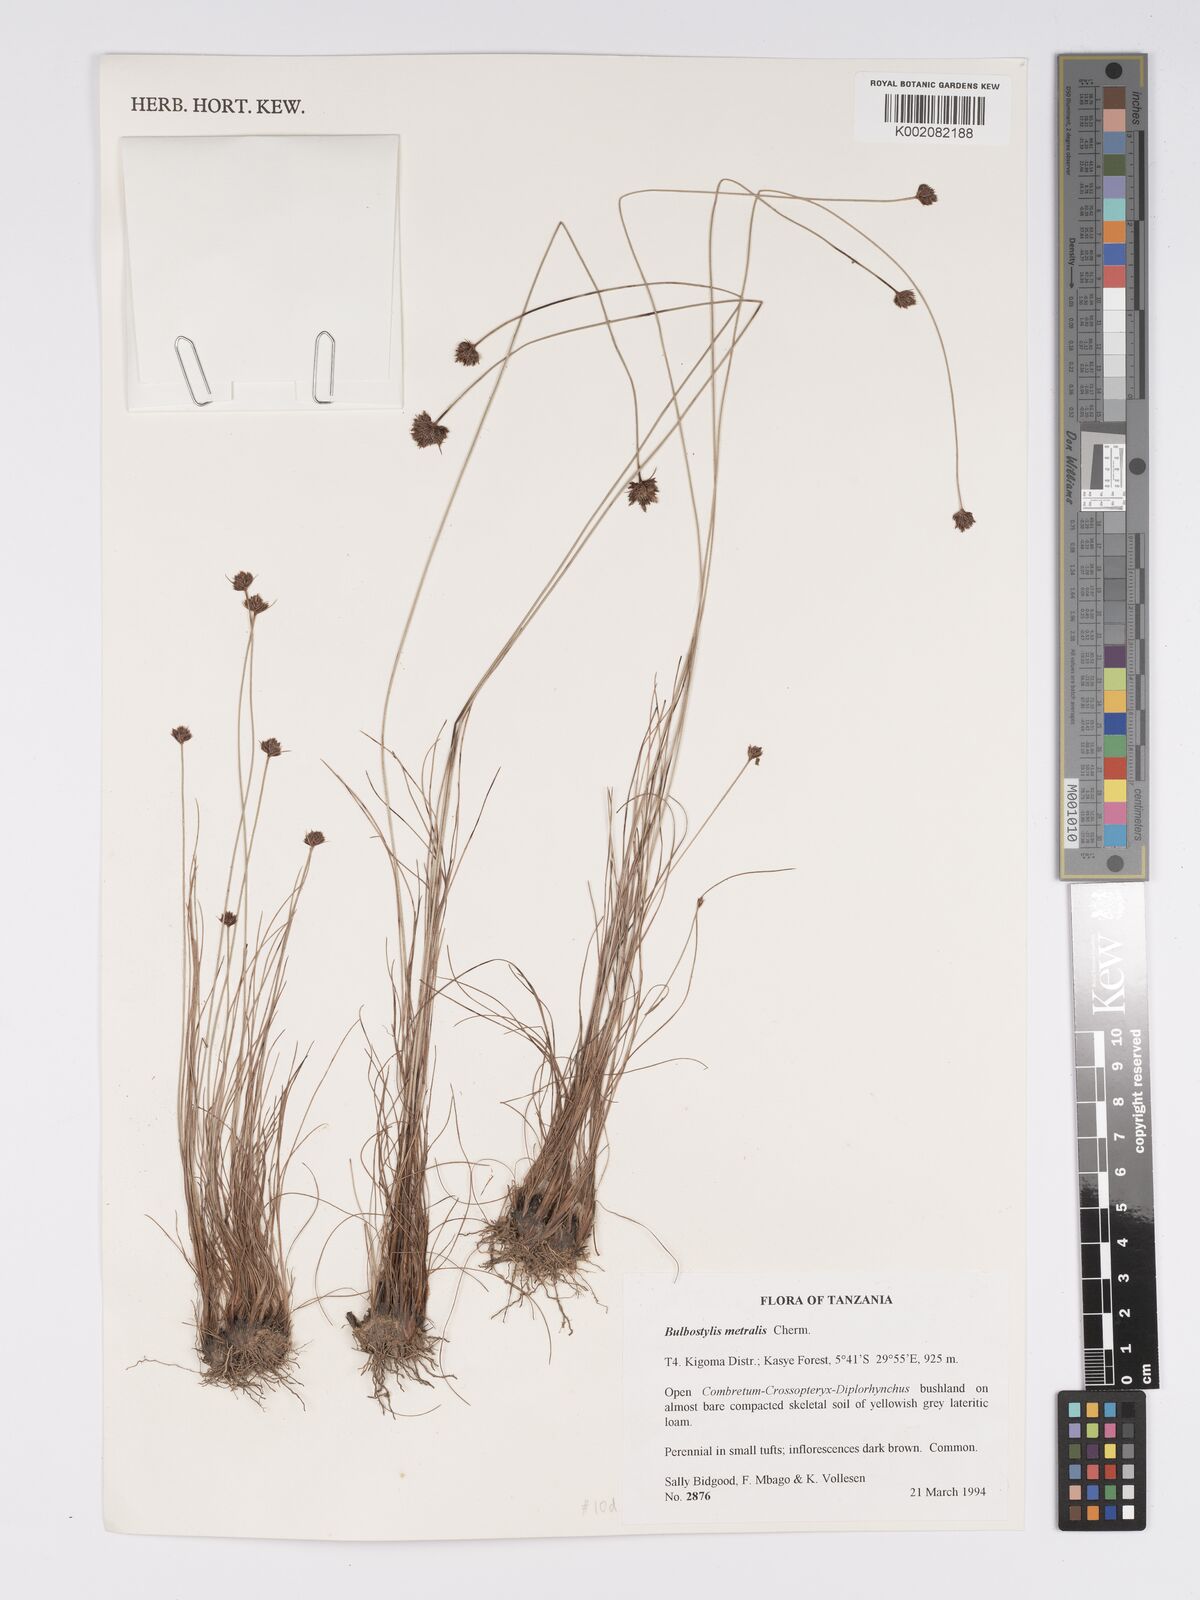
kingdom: Plantae
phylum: Tracheophyta
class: Liliopsida
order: Poales
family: Cyperaceae
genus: Bulbostylis
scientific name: Bulbostylis filamentosa
